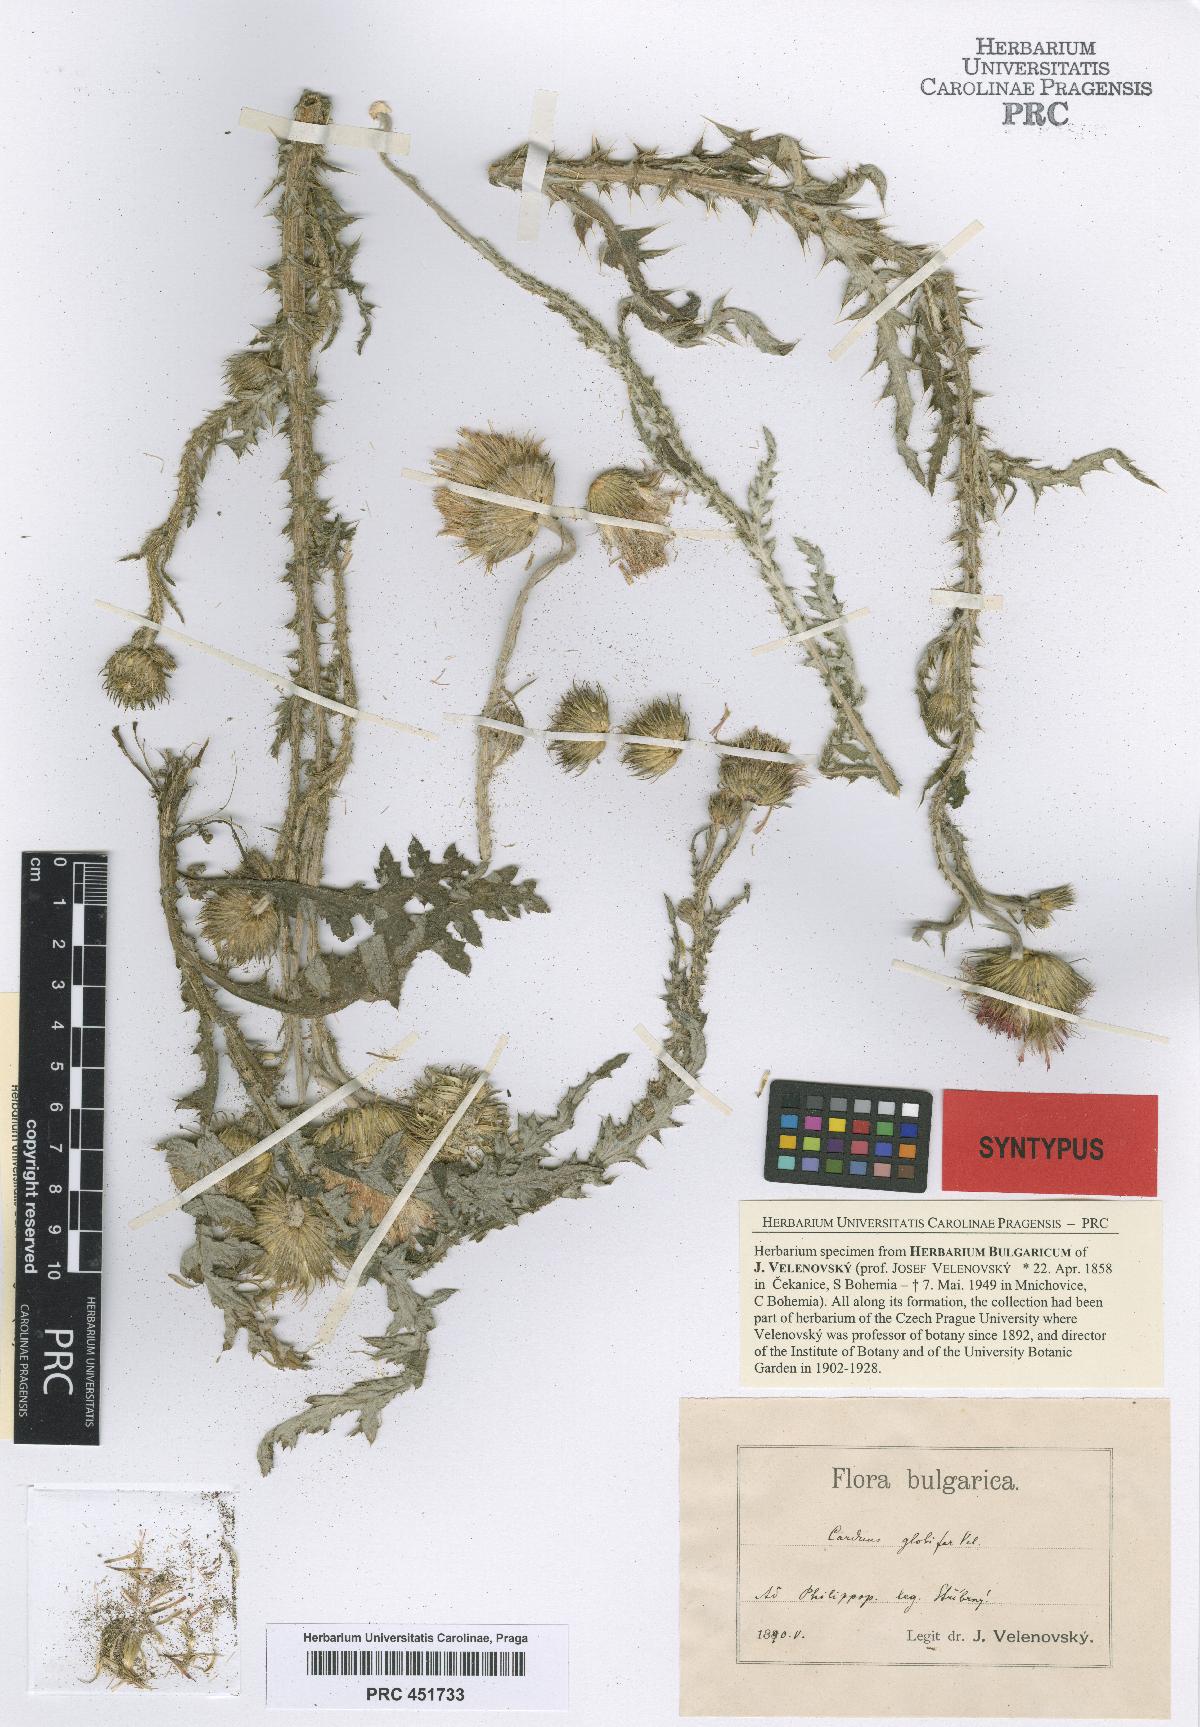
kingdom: Plantae
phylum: Tracheophyta
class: Magnoliopsida
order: Asterales
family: Asteraceae
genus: Carduus
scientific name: Carduus candicans
